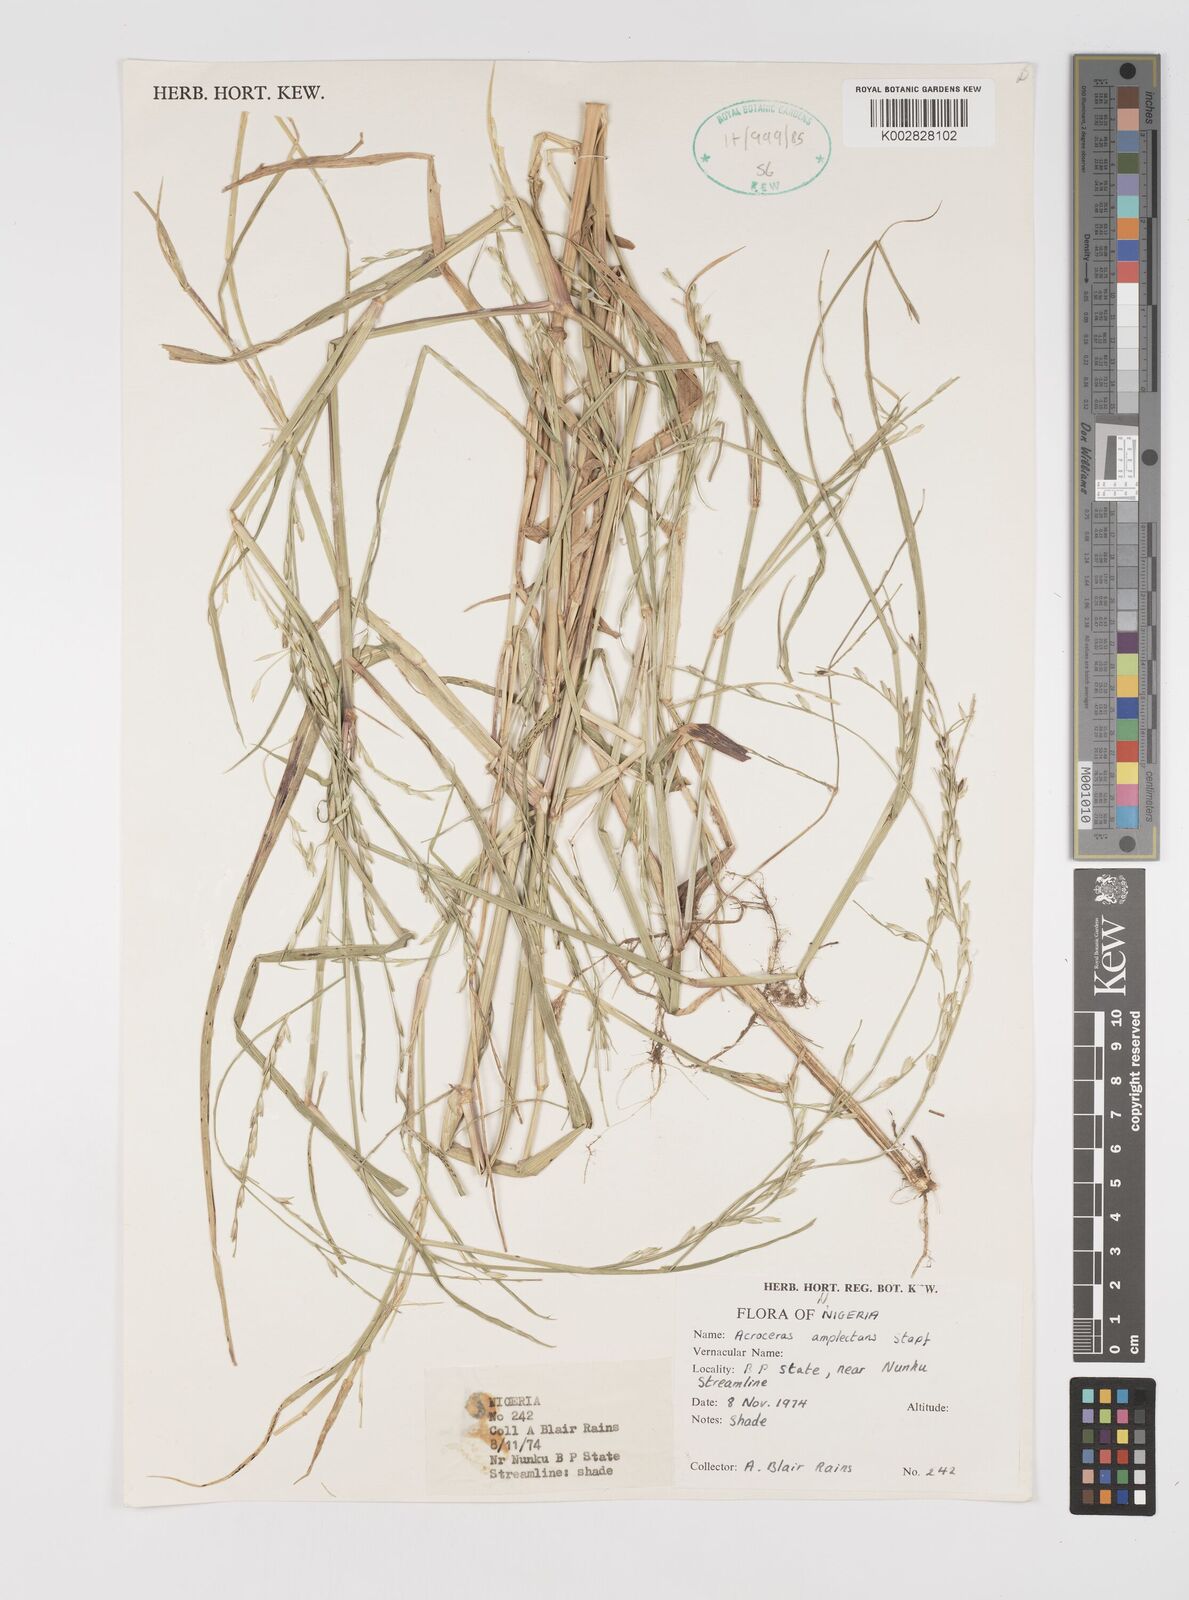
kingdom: Plantae
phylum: Tracheophyta
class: Liliopsida
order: Poales
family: Poaceae
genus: Acroceras
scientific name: Acroceras amplectens
